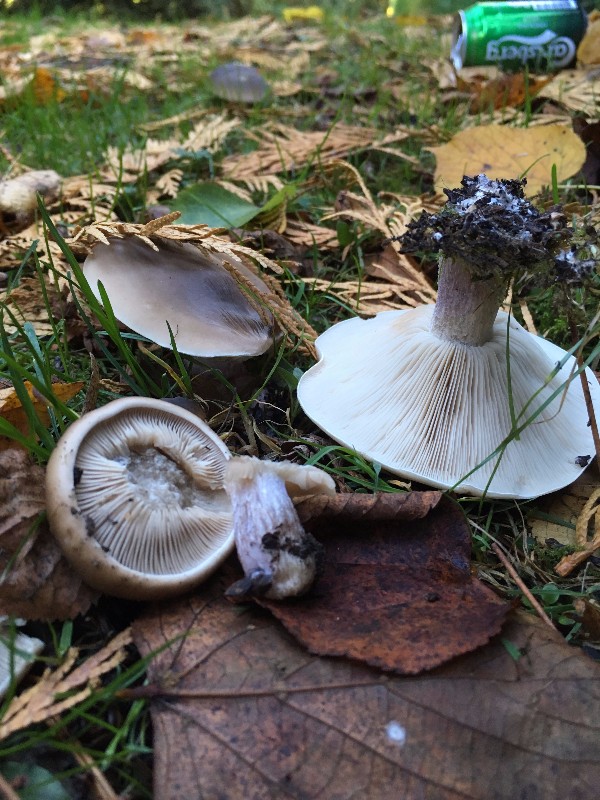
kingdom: Fungi
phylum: Basidiomycota
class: Agaricomycetes
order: Agaricales
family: Tricholomataceae
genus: Lepista
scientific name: Lepista personata
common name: bleg hekseringshat
